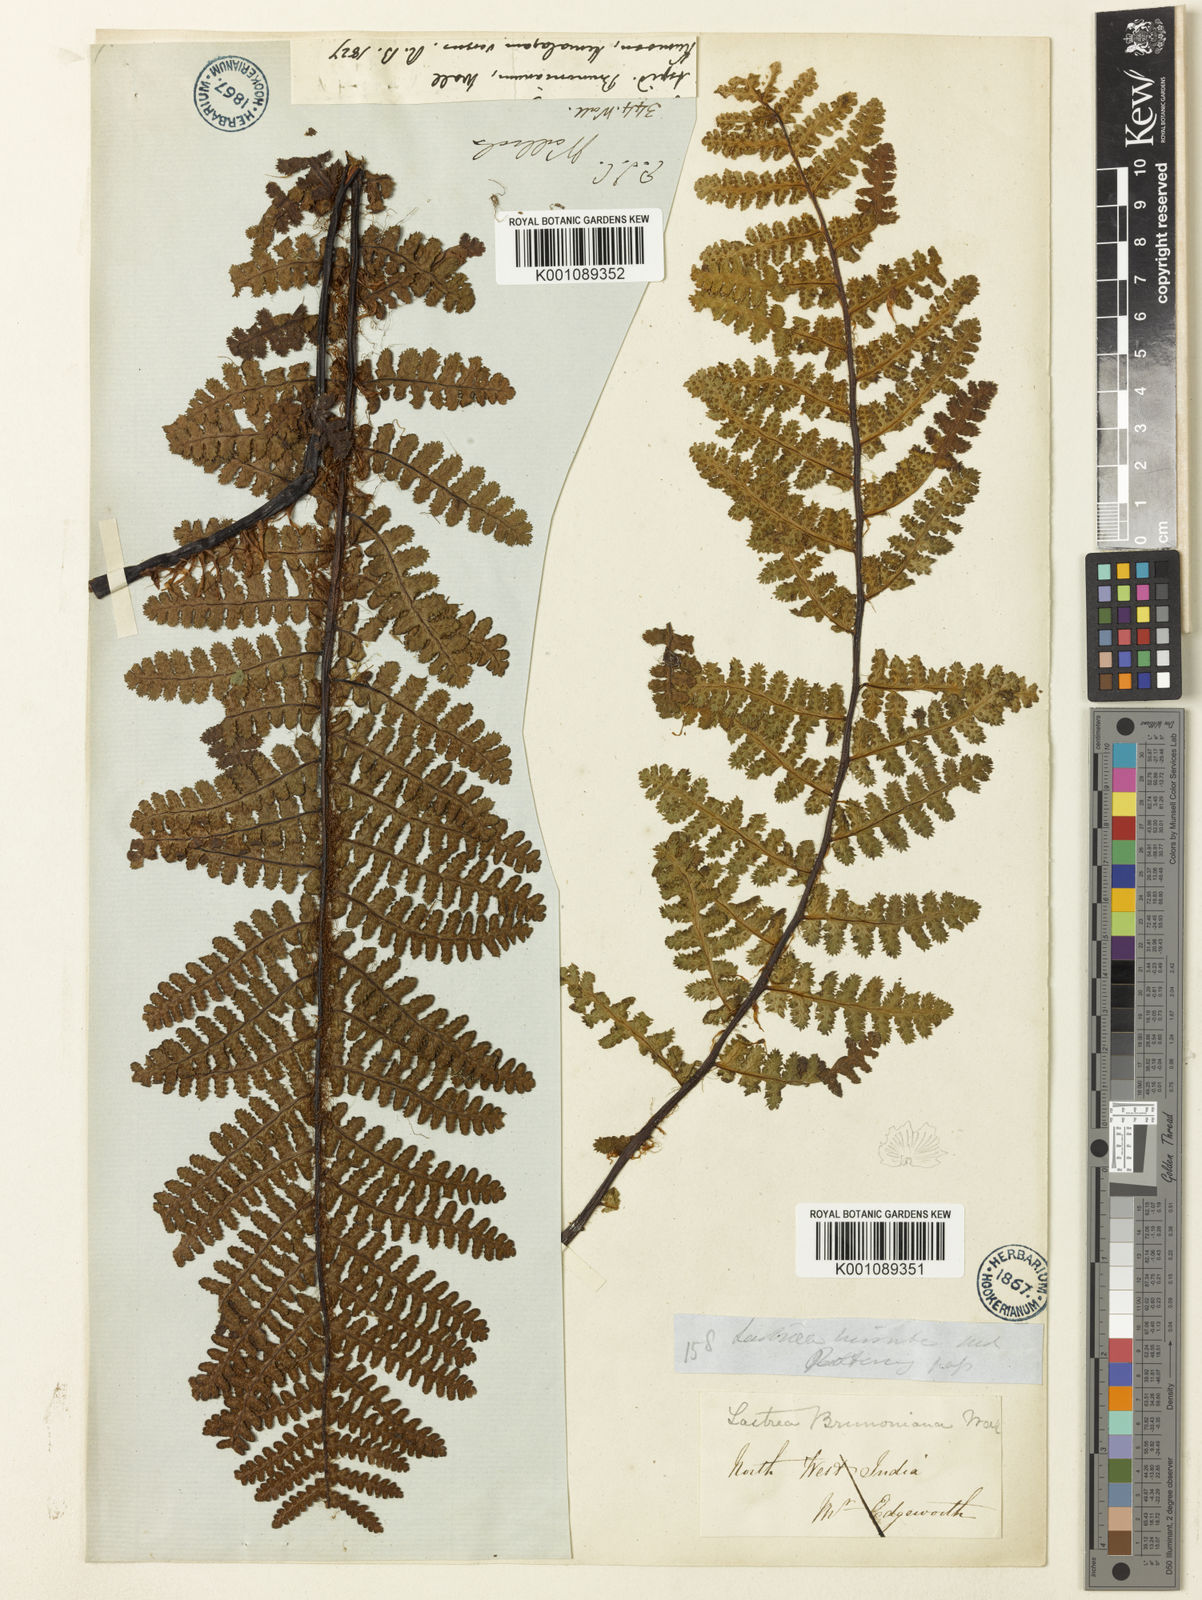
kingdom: Plantae
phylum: Tracheophyta
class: Polypodiopsida
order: Polypodiales
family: Athyriaceae
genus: Athyrium
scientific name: Athyrium wallichianum
